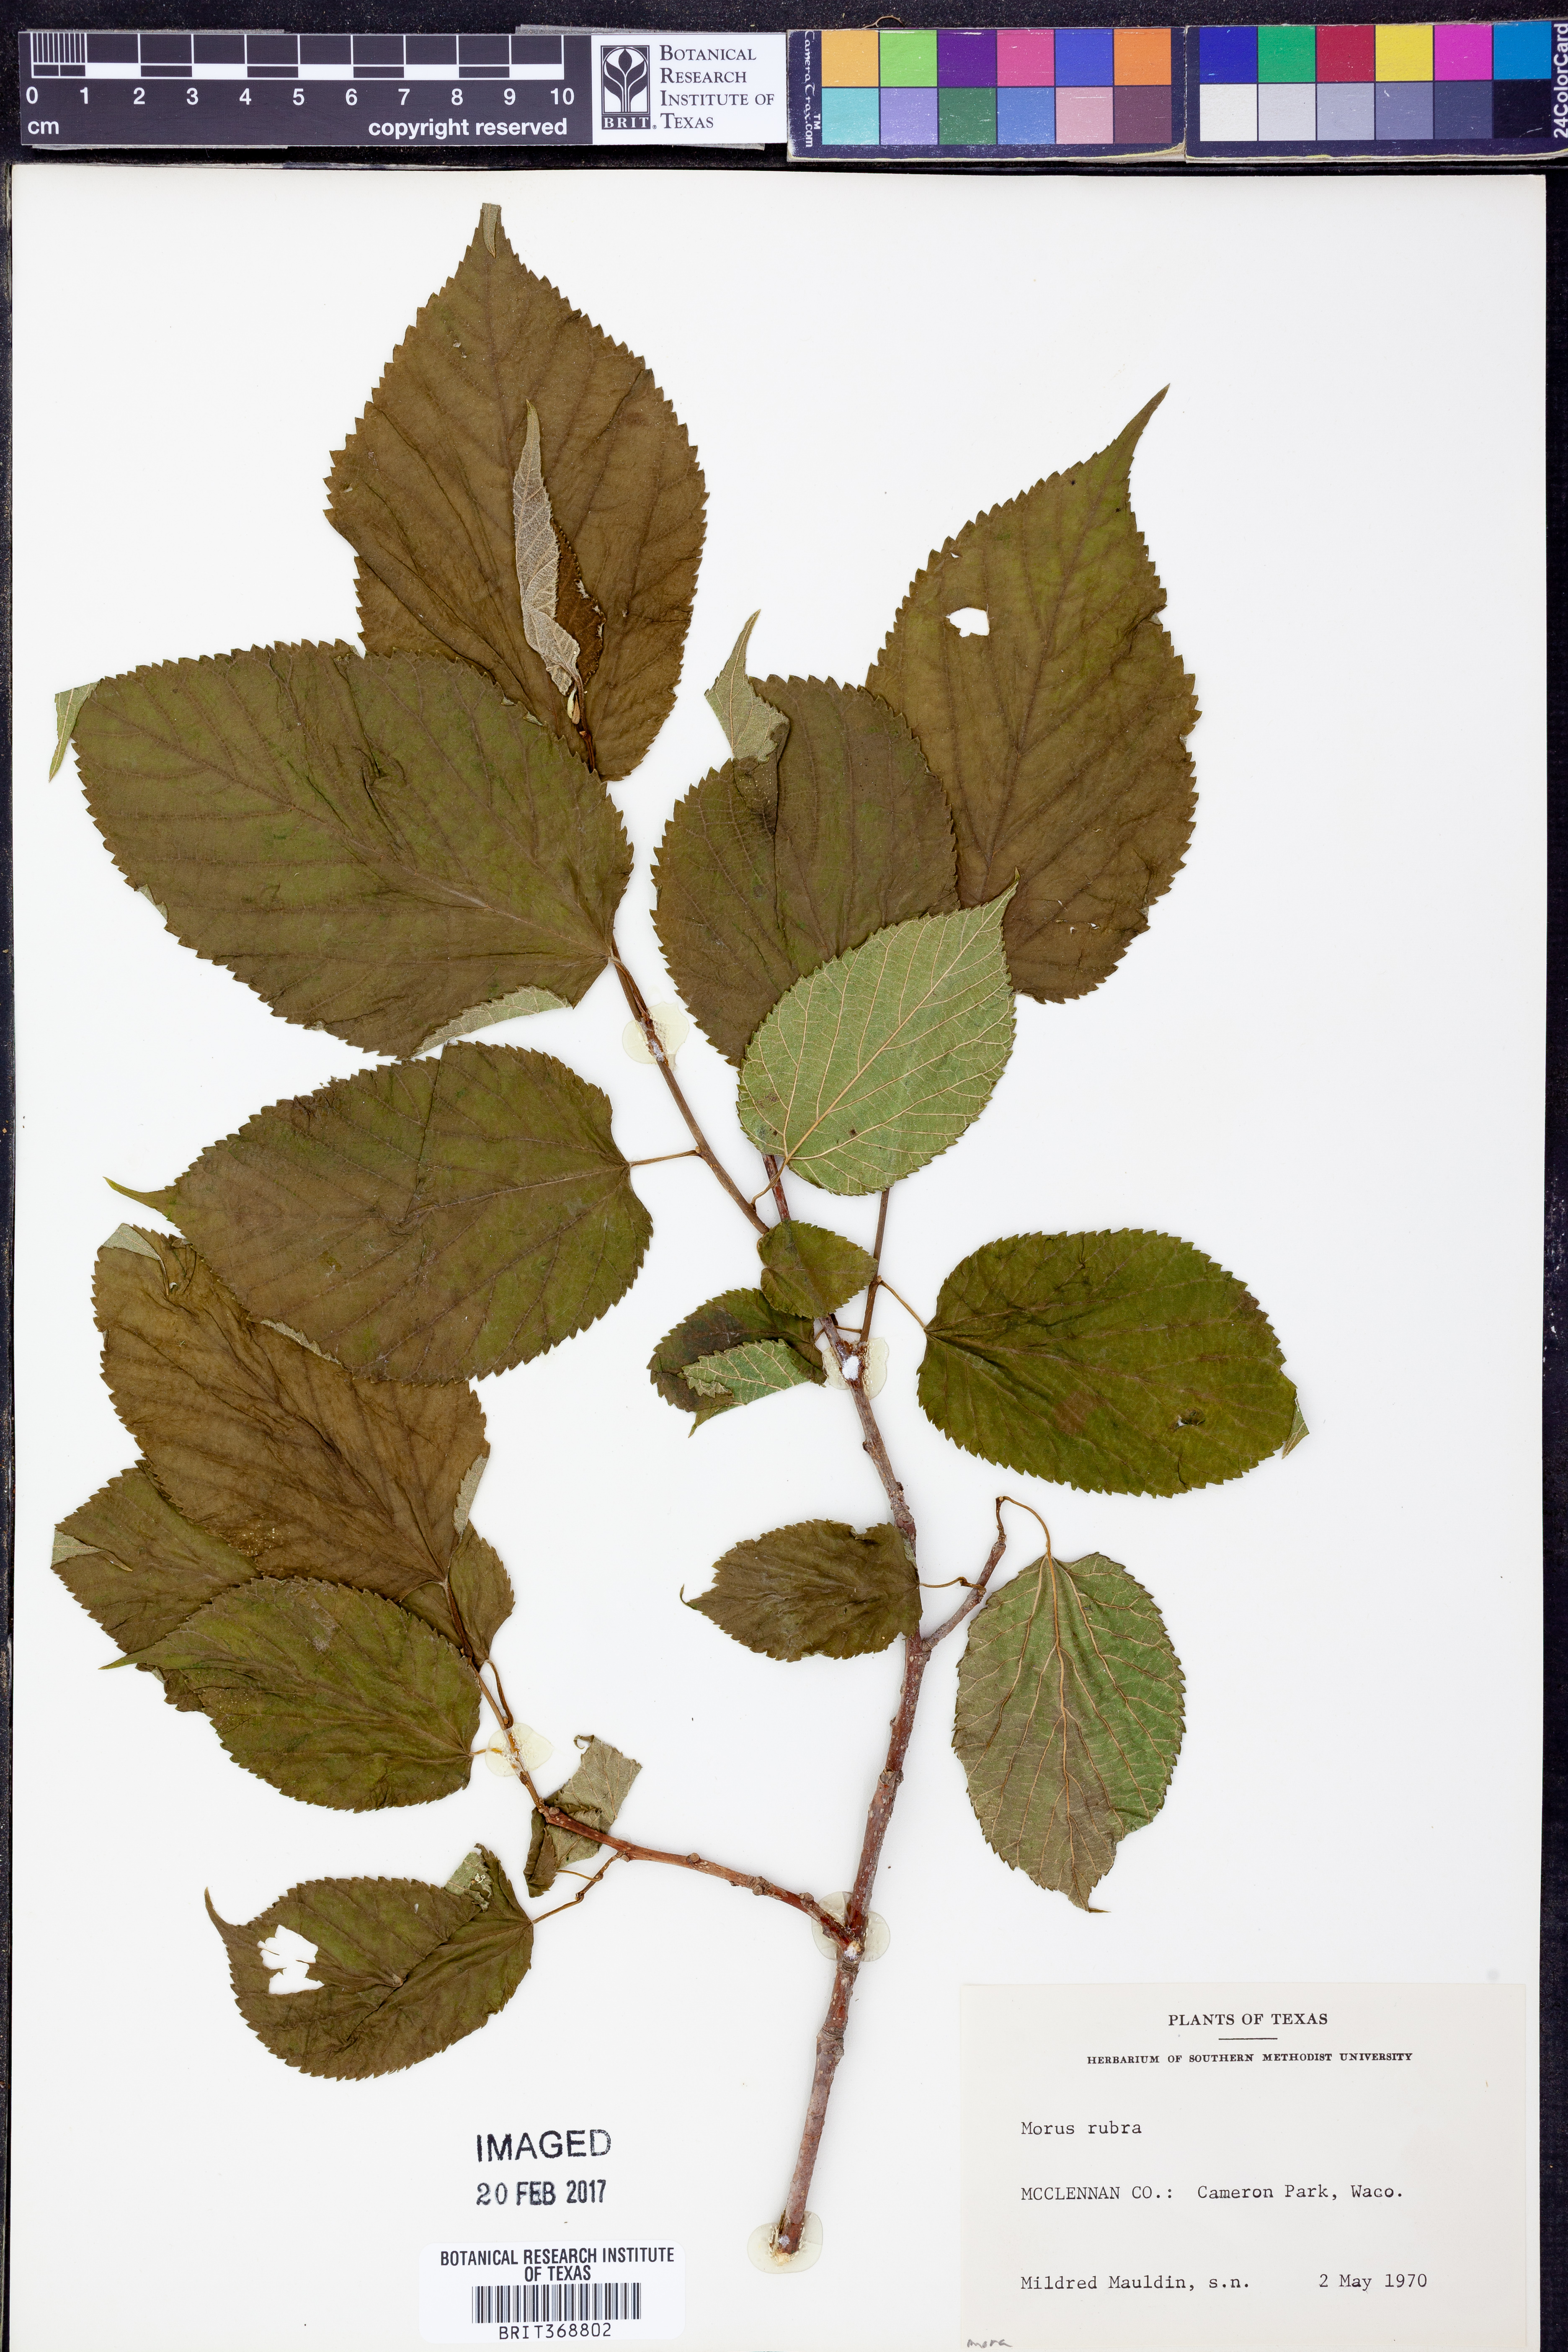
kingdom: Plantae
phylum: Tracheophyta
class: Magnoliopsida
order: Rosales
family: Moraceae
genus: Morus
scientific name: Morus rubra
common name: Red mulberry
